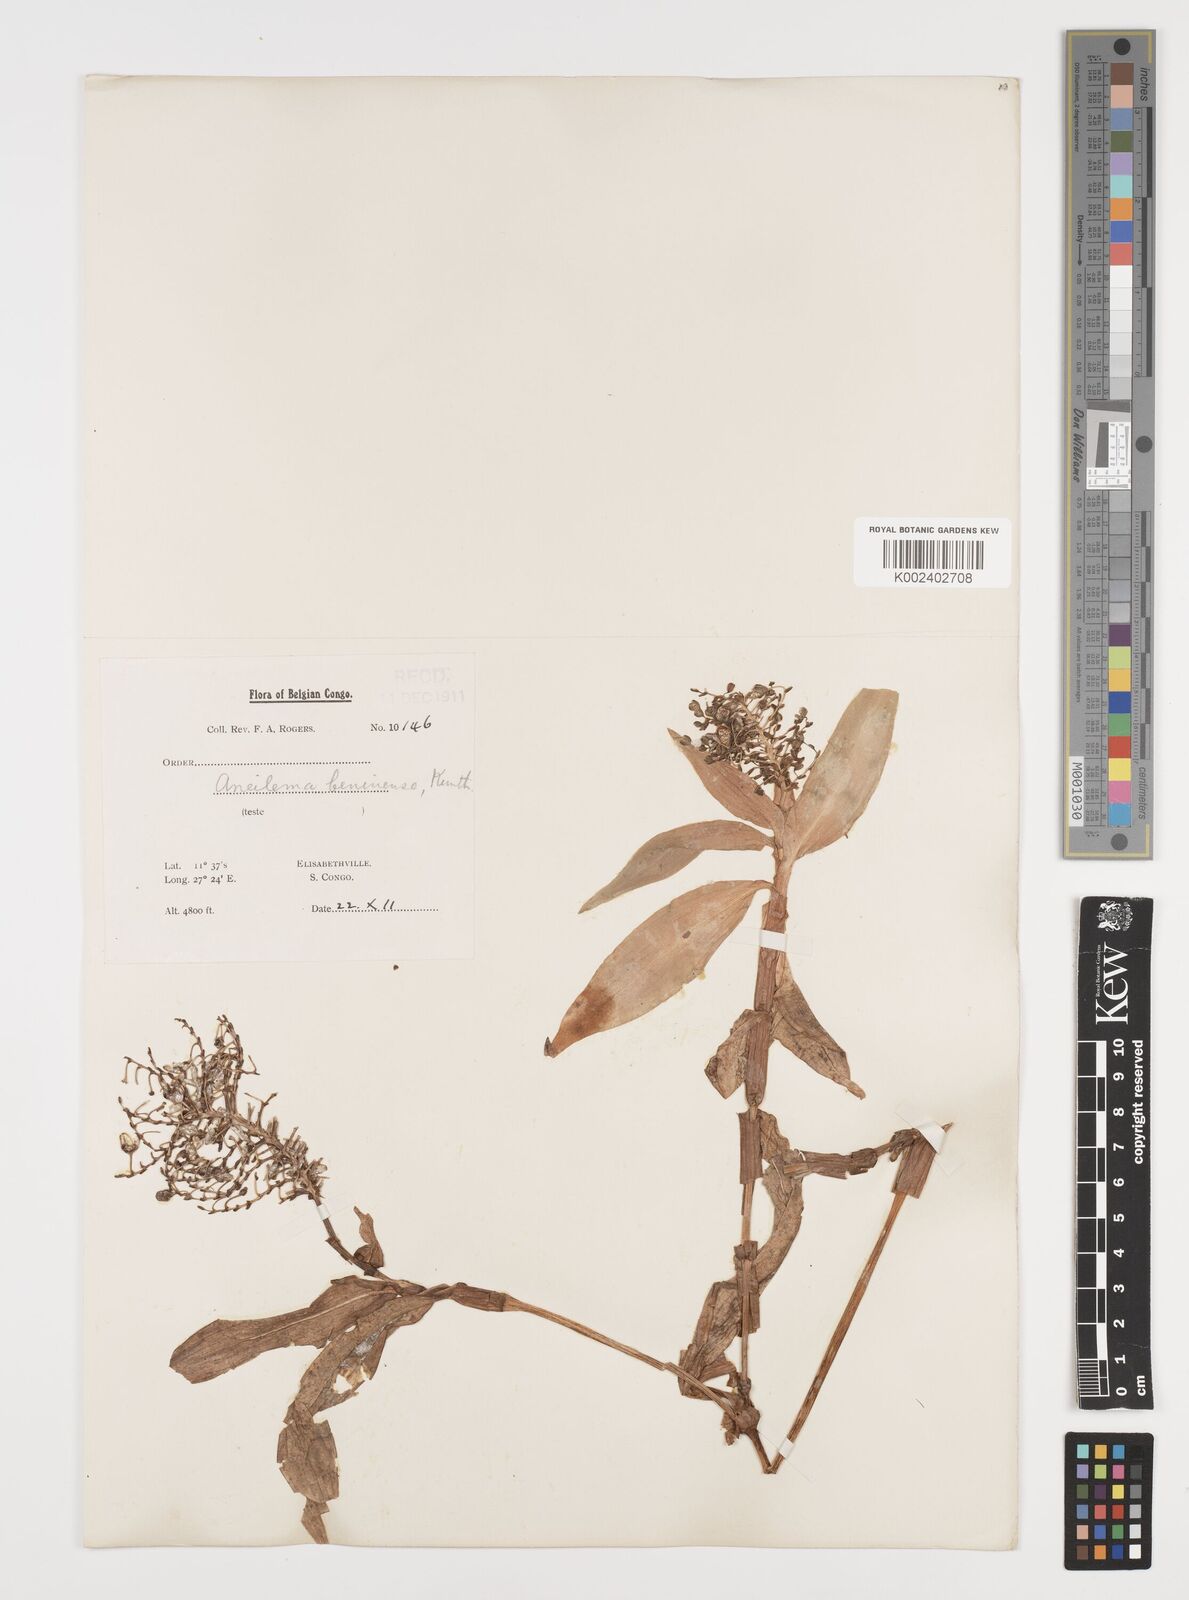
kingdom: Plantae
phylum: Tracheophyta
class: Liliopsida
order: Commelinales
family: Commelinaceae
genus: Aneilema
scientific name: Aneilema beniniense
